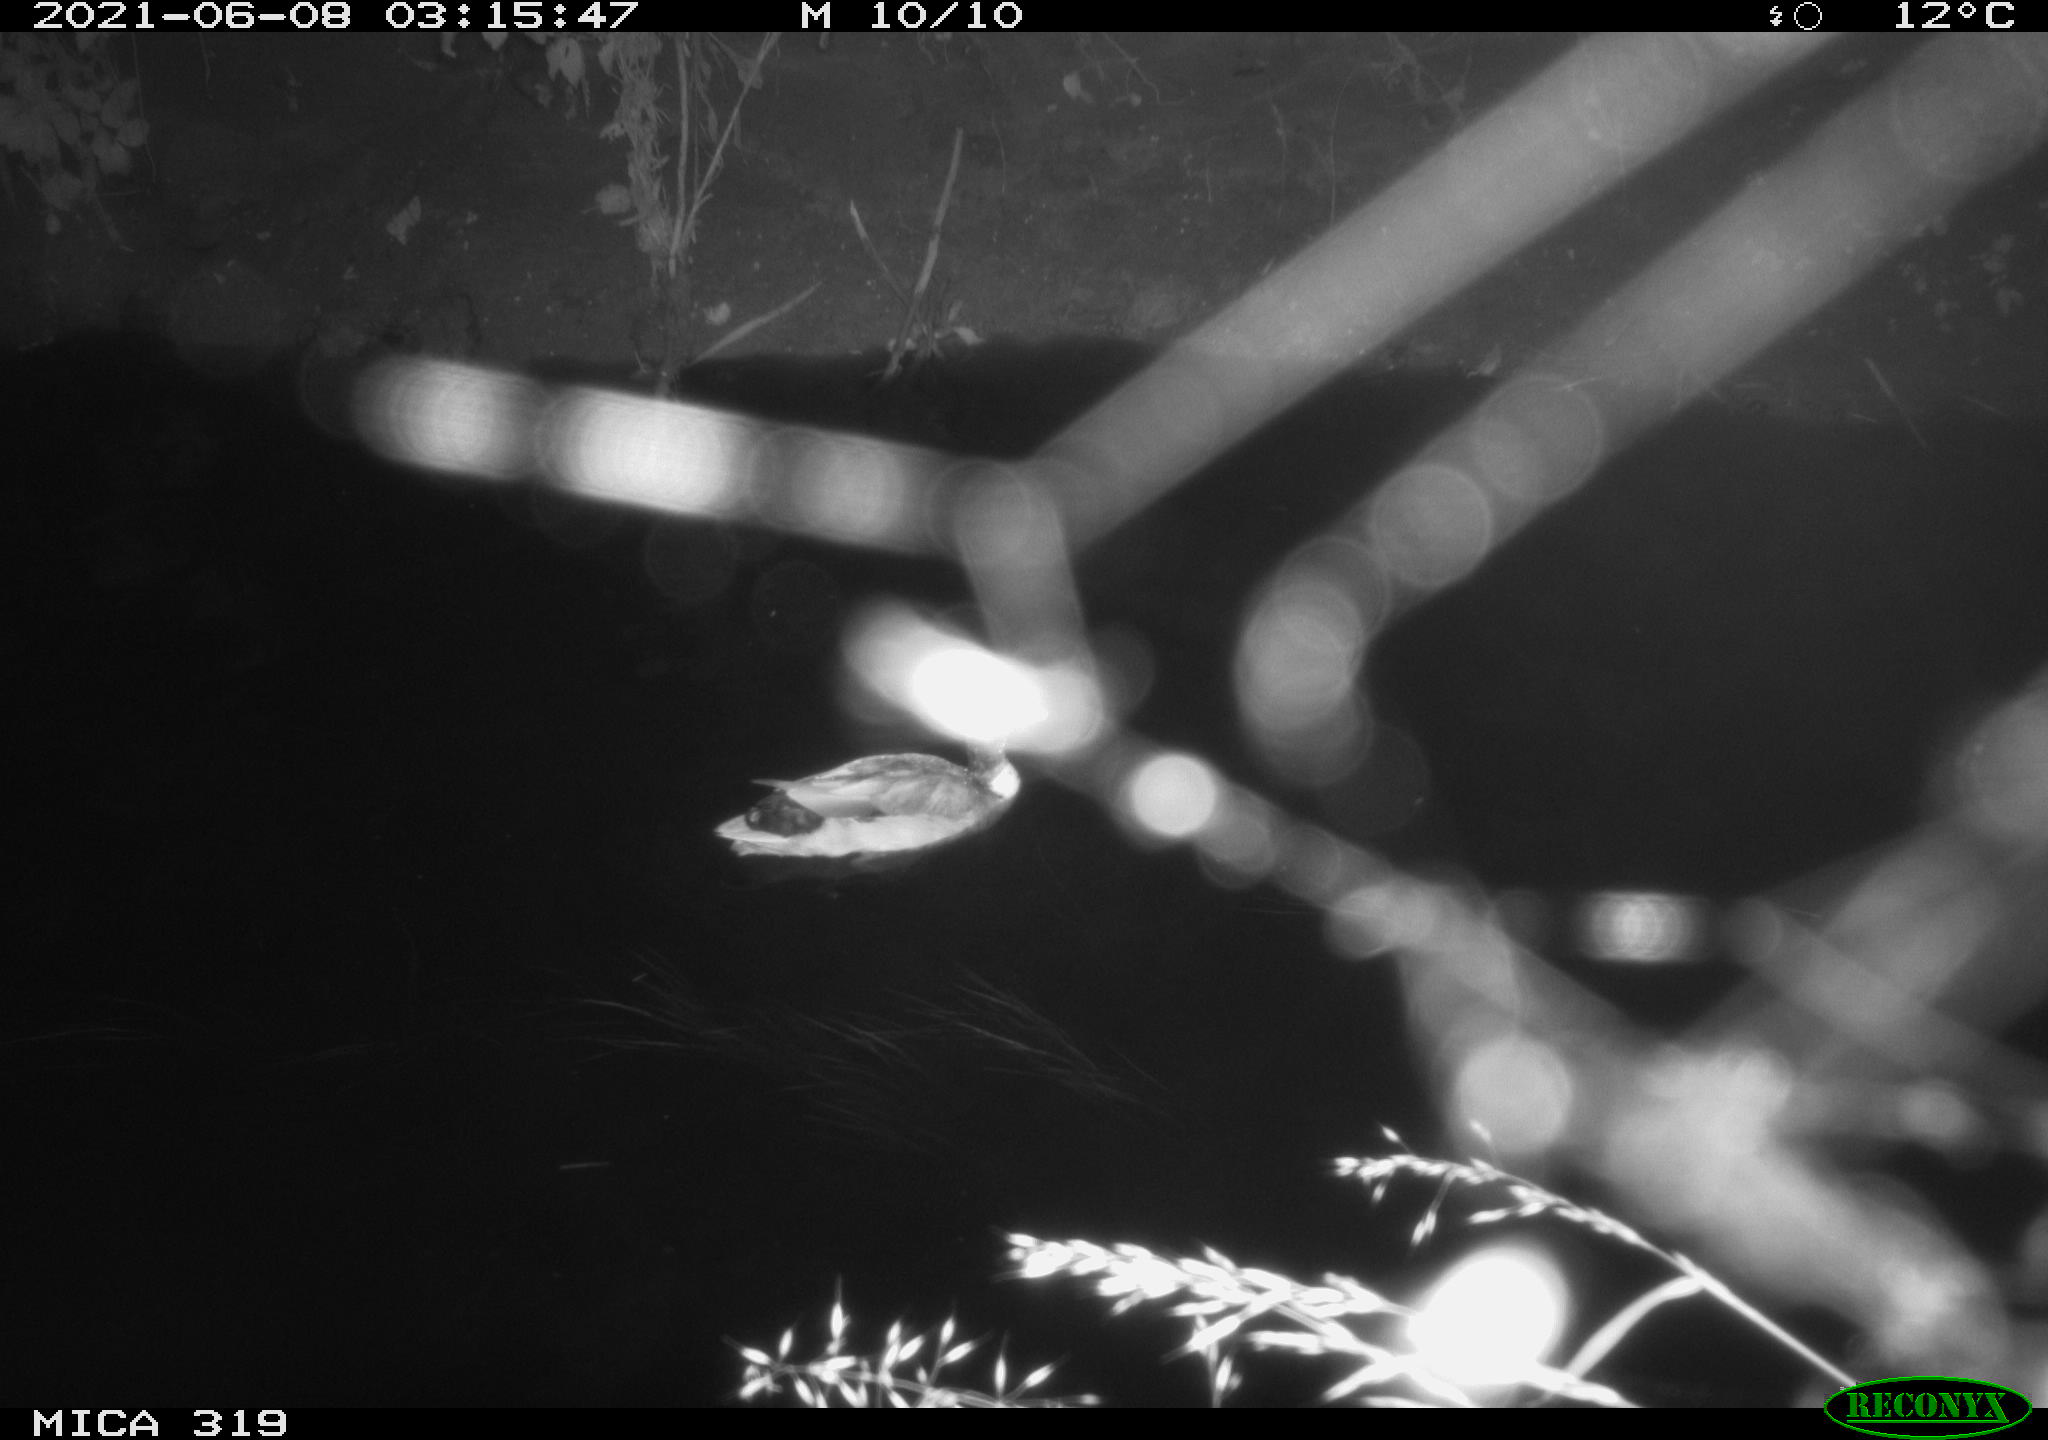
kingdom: Animalia
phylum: Chordata
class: Aves
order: Anseriformes
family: Anatidae
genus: Anas
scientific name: Anas platyrhynchos
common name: Mallard
